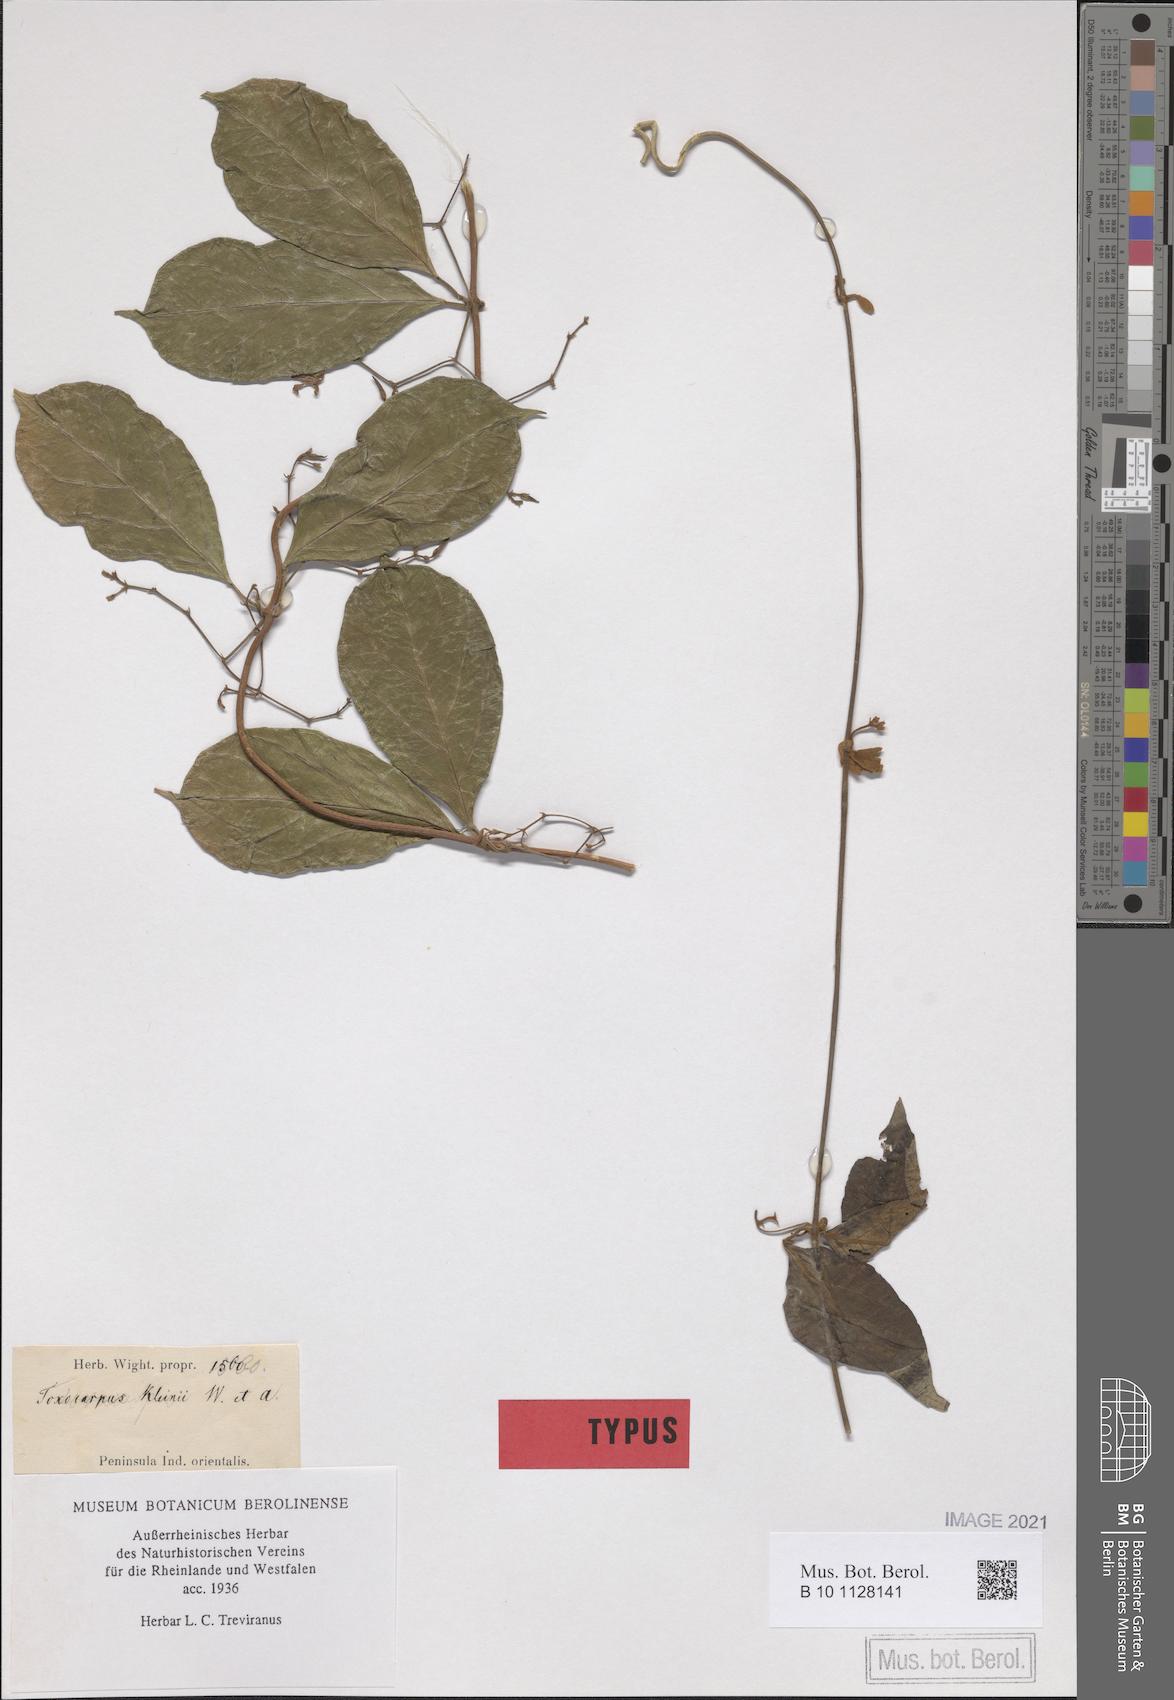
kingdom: Plantae
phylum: Tracheophyta
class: Magnoliopsida
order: Gentianales
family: Apocynaceae
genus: Toxocarpus
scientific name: Toxocarpus kleinii
